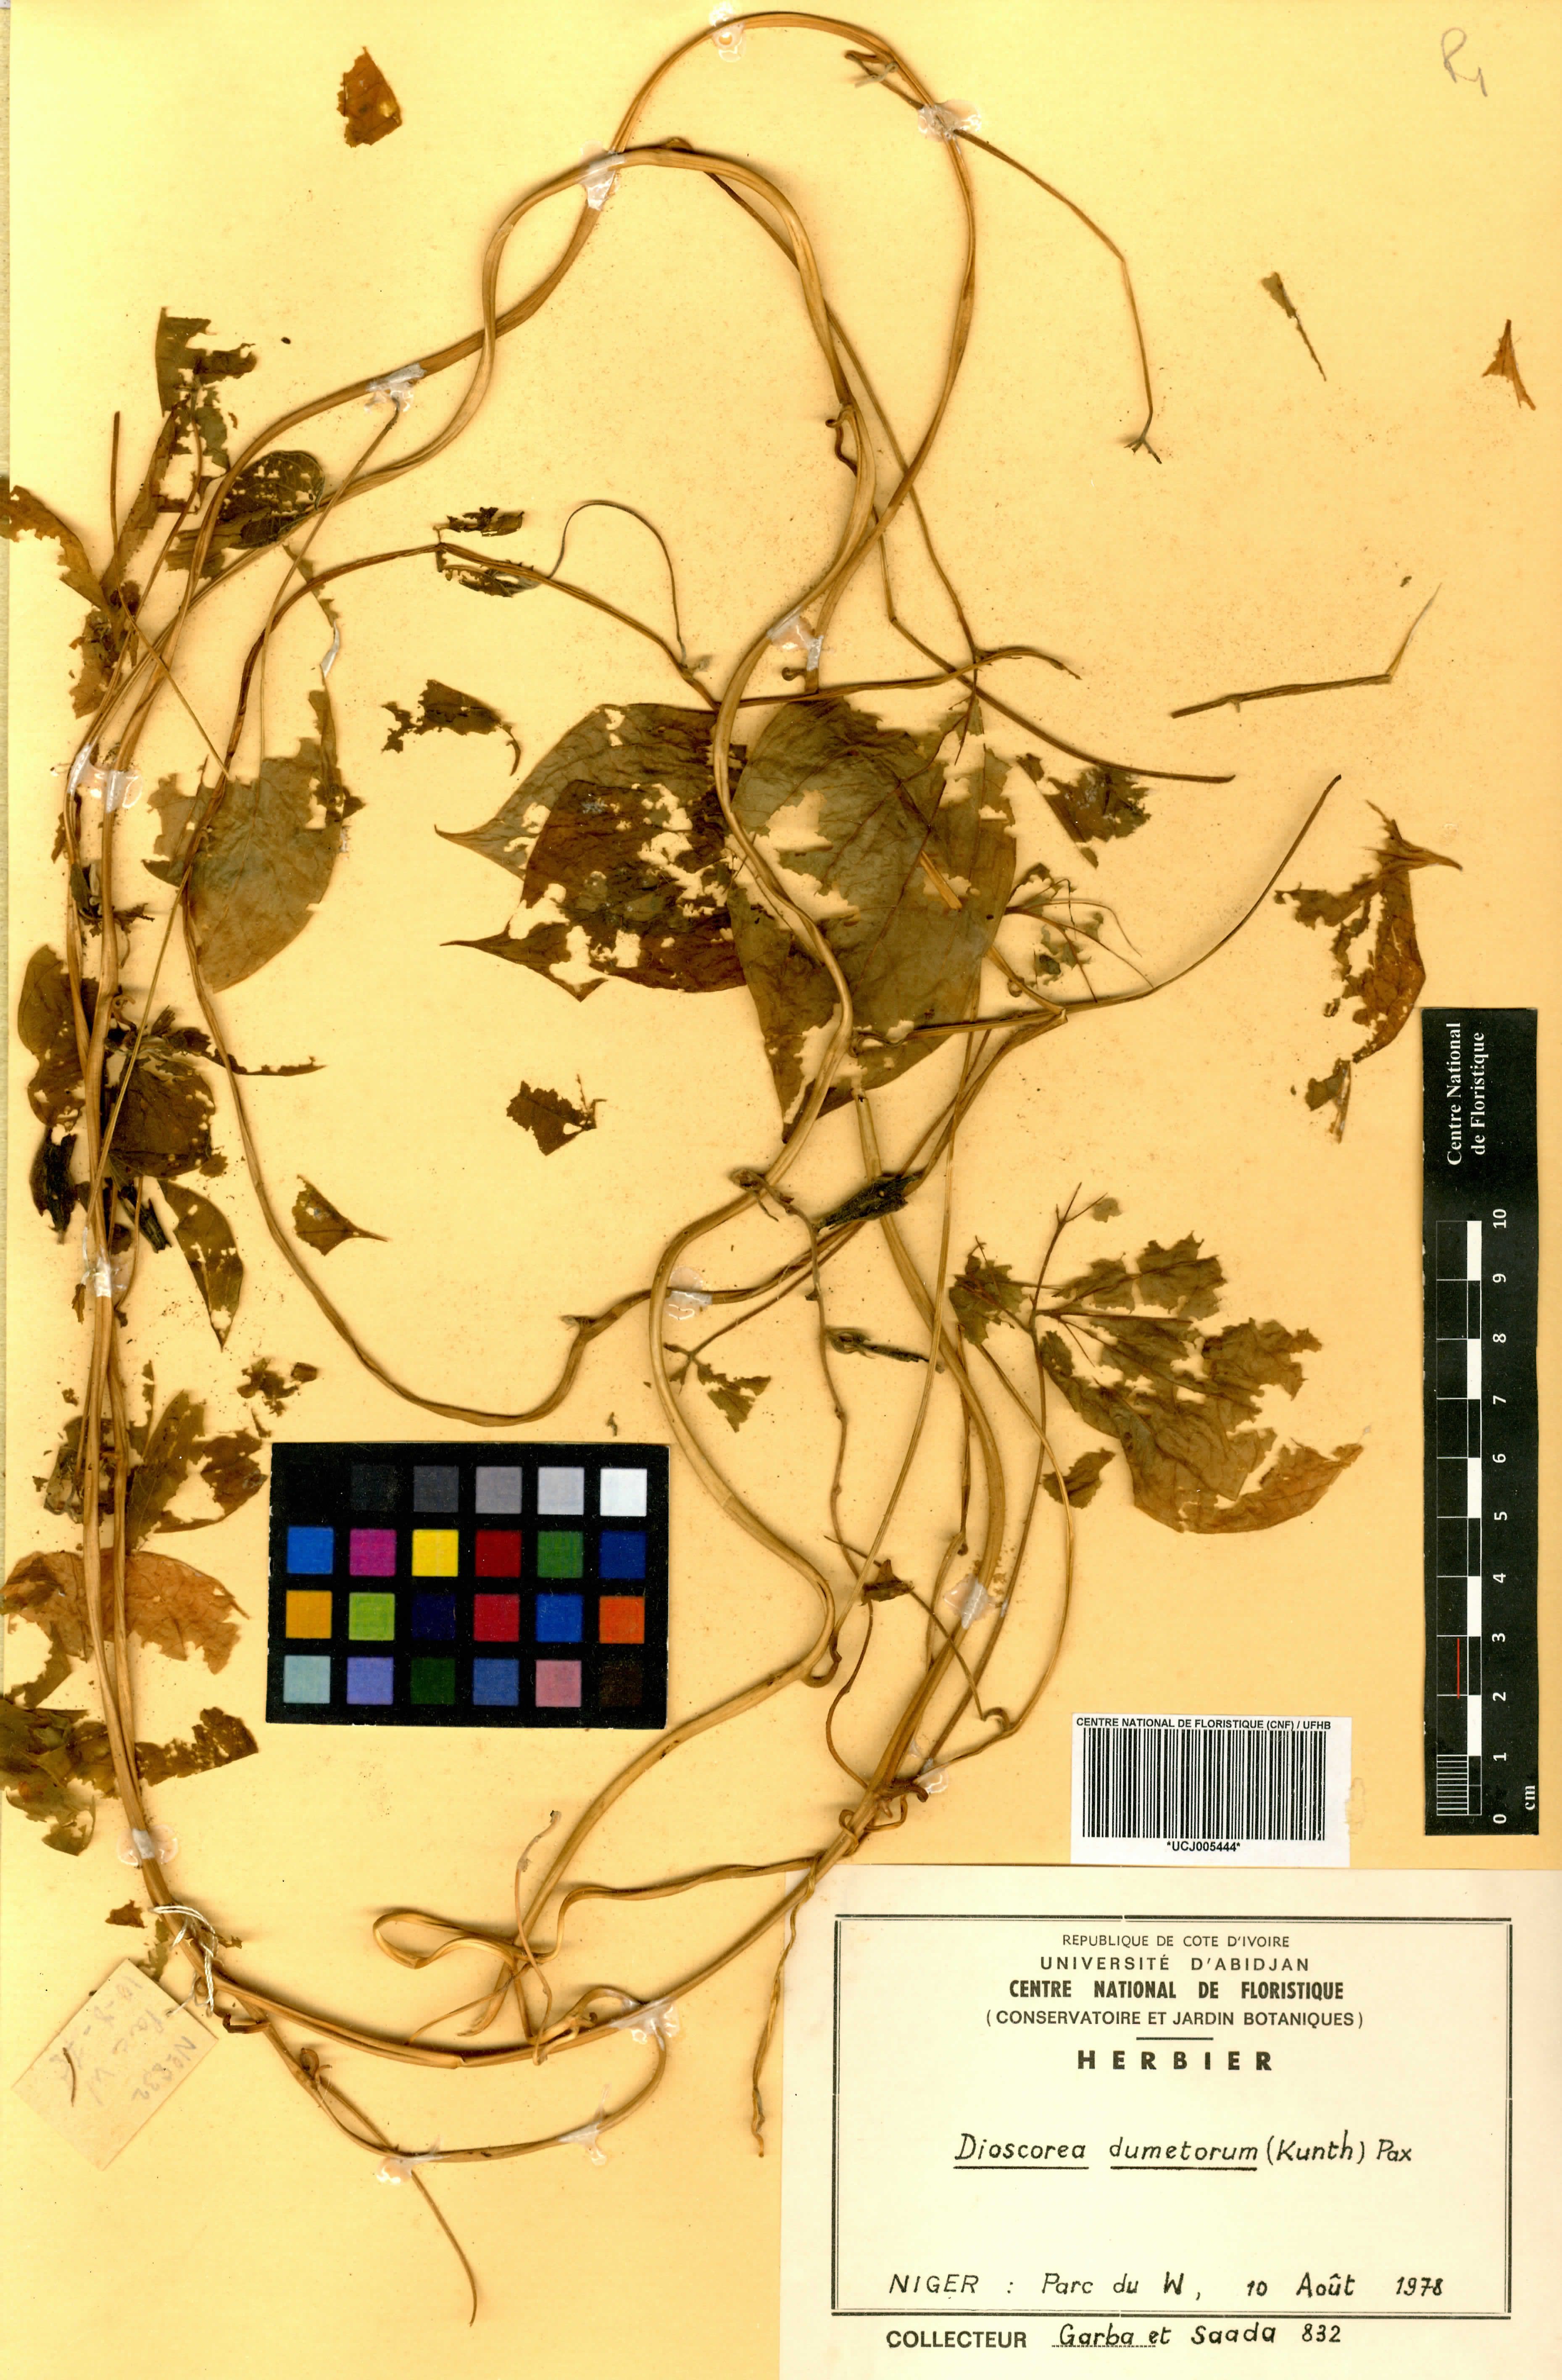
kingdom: Plantae
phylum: Tracheophyta
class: Liliopsida
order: Dioscoreales
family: Dioscoreaceae
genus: Dioscorea
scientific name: Dioscorea dumetorum
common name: African bitter yam
